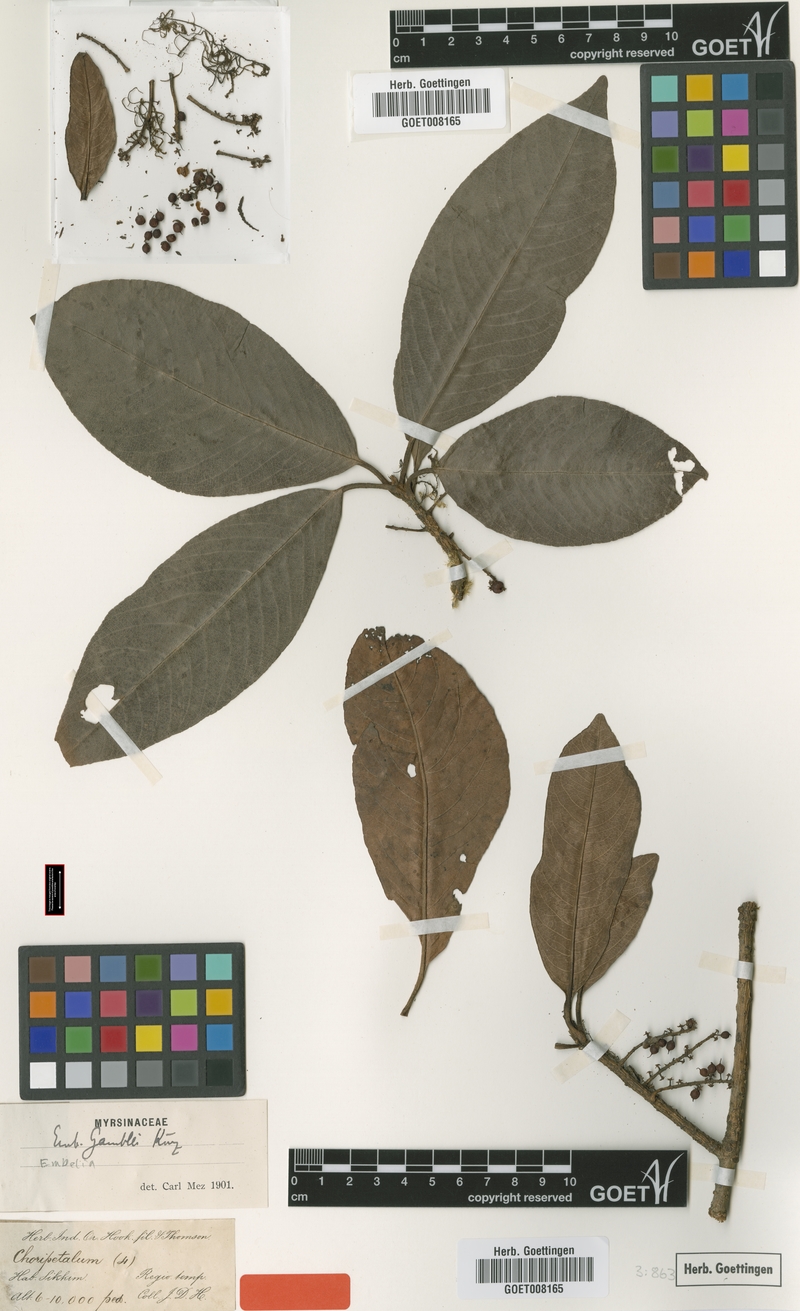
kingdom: Plantae
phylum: Tracheophyta
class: Magnoliopsida
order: Ericales
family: Primulaceae
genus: Embelia
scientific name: Embelia frondosa
